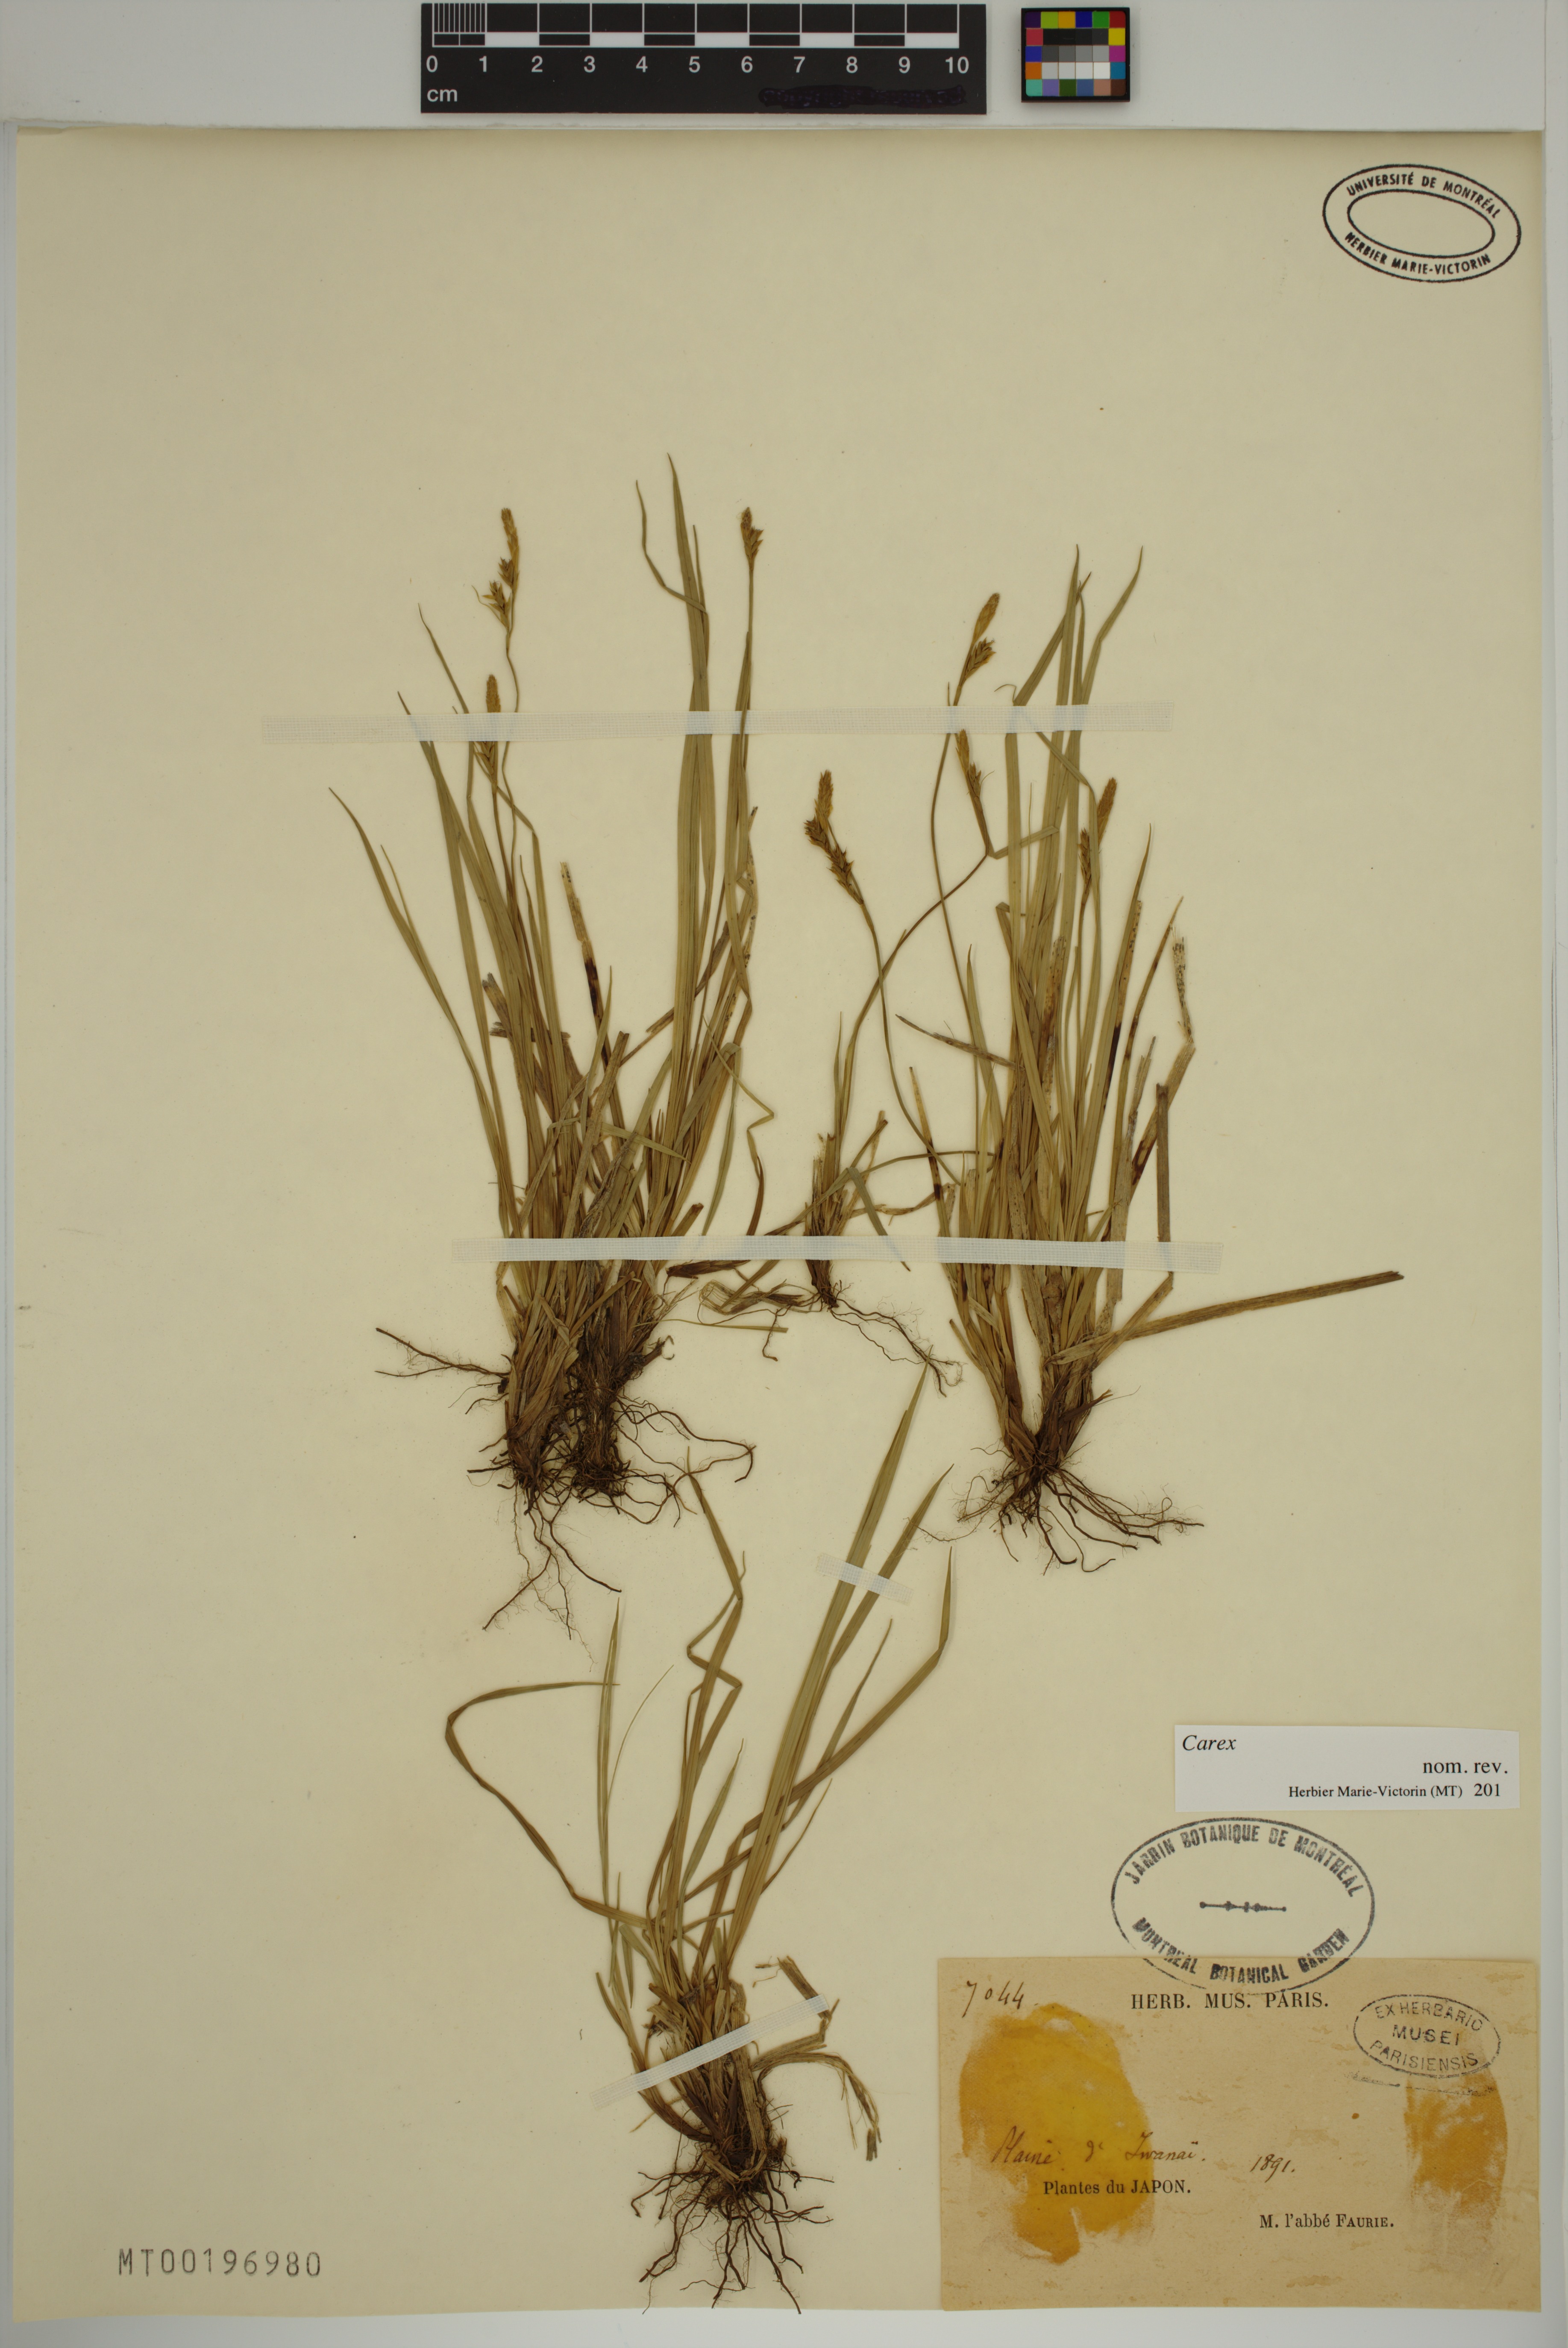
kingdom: Plantae
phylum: Tracheophyta
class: Liliopsida
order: Poales
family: Cyperaceae
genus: Carex
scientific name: Carex
